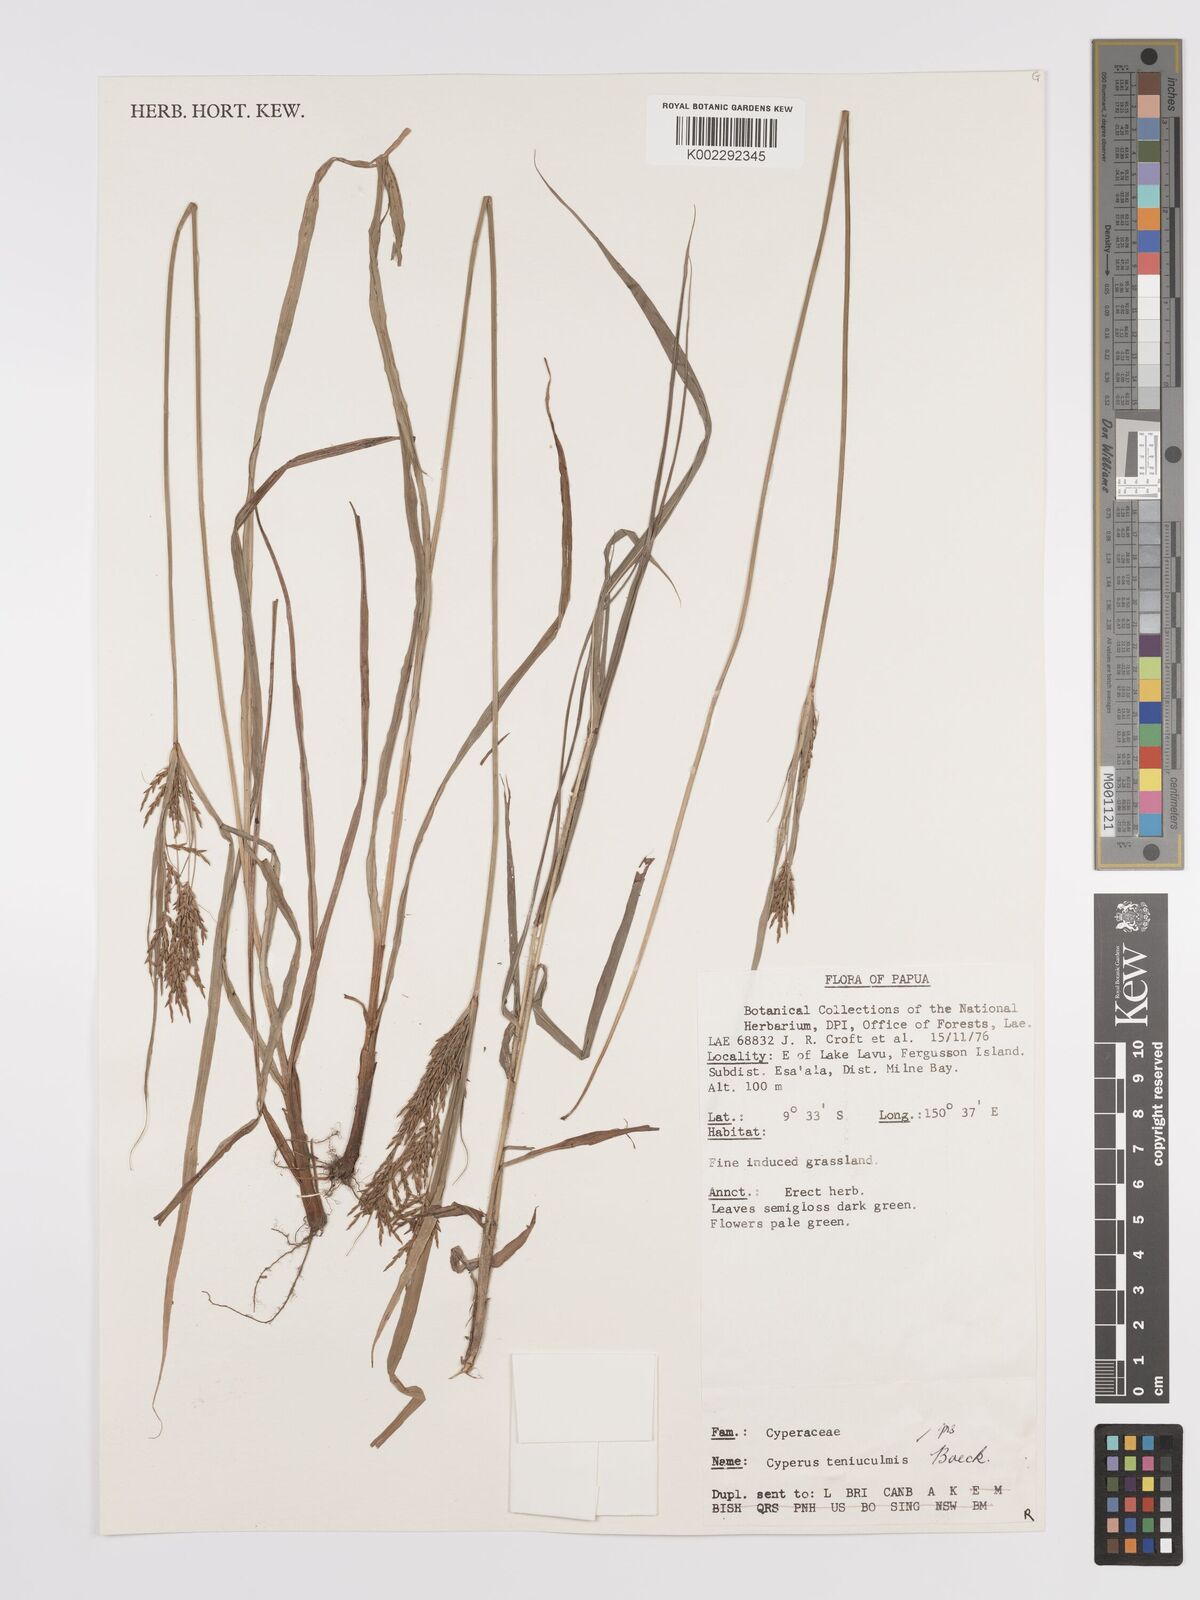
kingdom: Plantae
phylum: Tracheophyta
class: Liliopsida
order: Poales
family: Cyperaceae
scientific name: Cyperaceae
